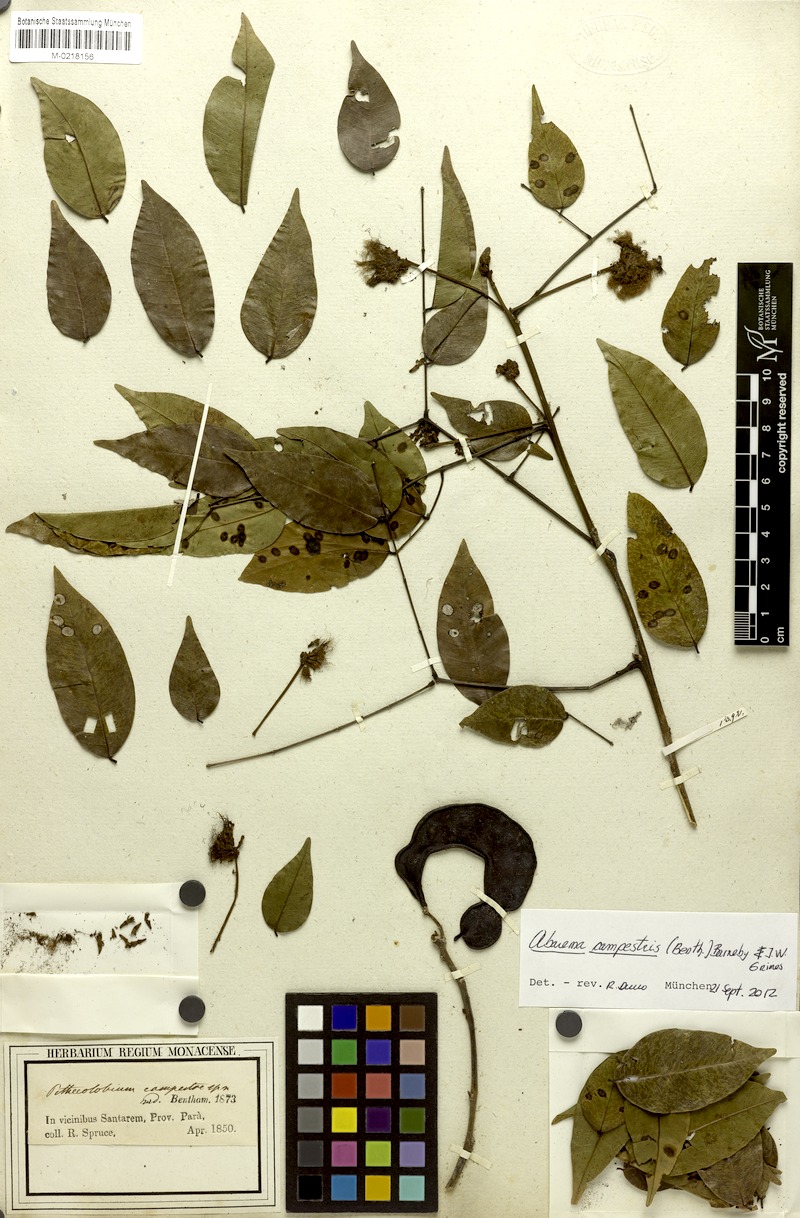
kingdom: Plantae
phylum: Tracheophyta
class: Magnoliopsida
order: Fabales
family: Fabaceae
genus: Jupunba
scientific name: Jupunba campestris
